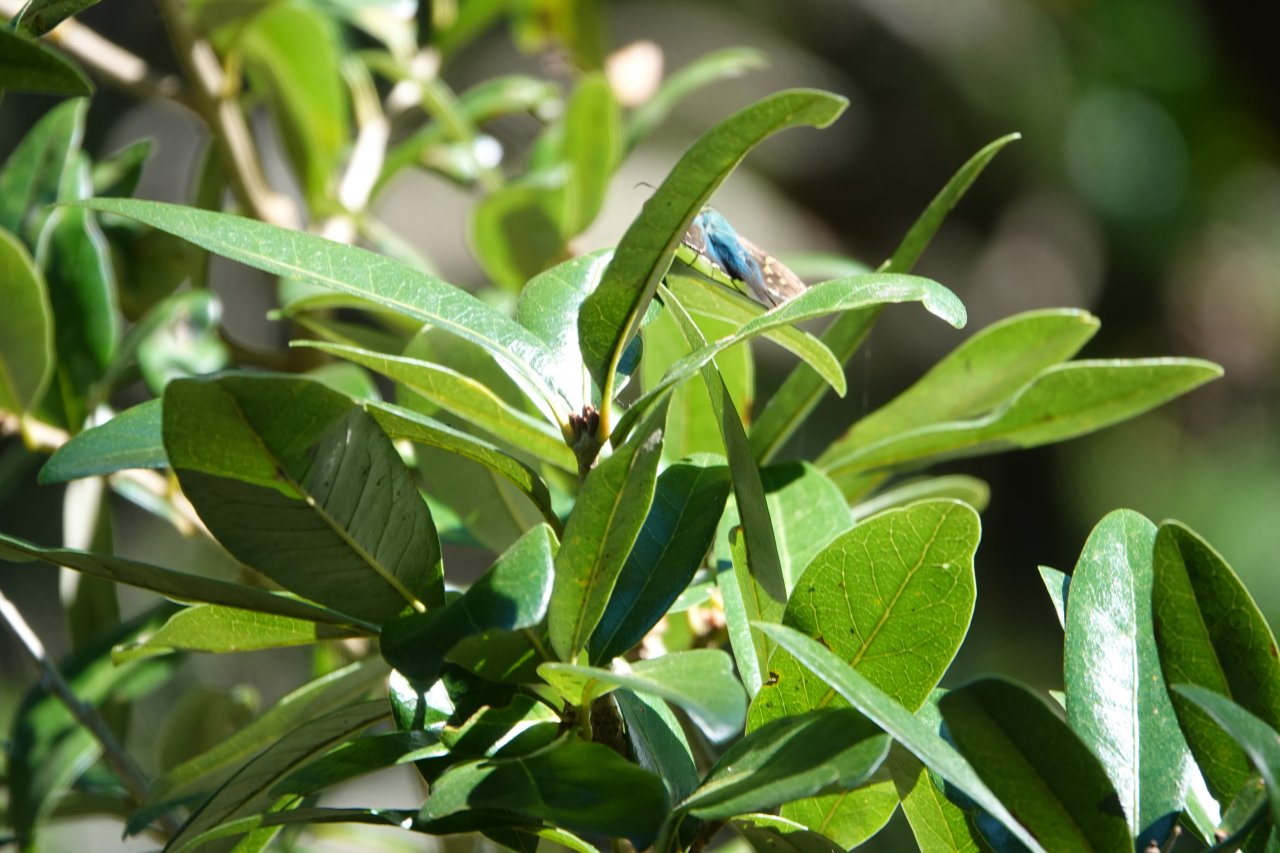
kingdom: Animalia
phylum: Arthropoda
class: Insecta
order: Lepidoptera
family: Hesperiidae
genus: Urbanus
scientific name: Urbanus proteus
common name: Long-tailed Skipper
